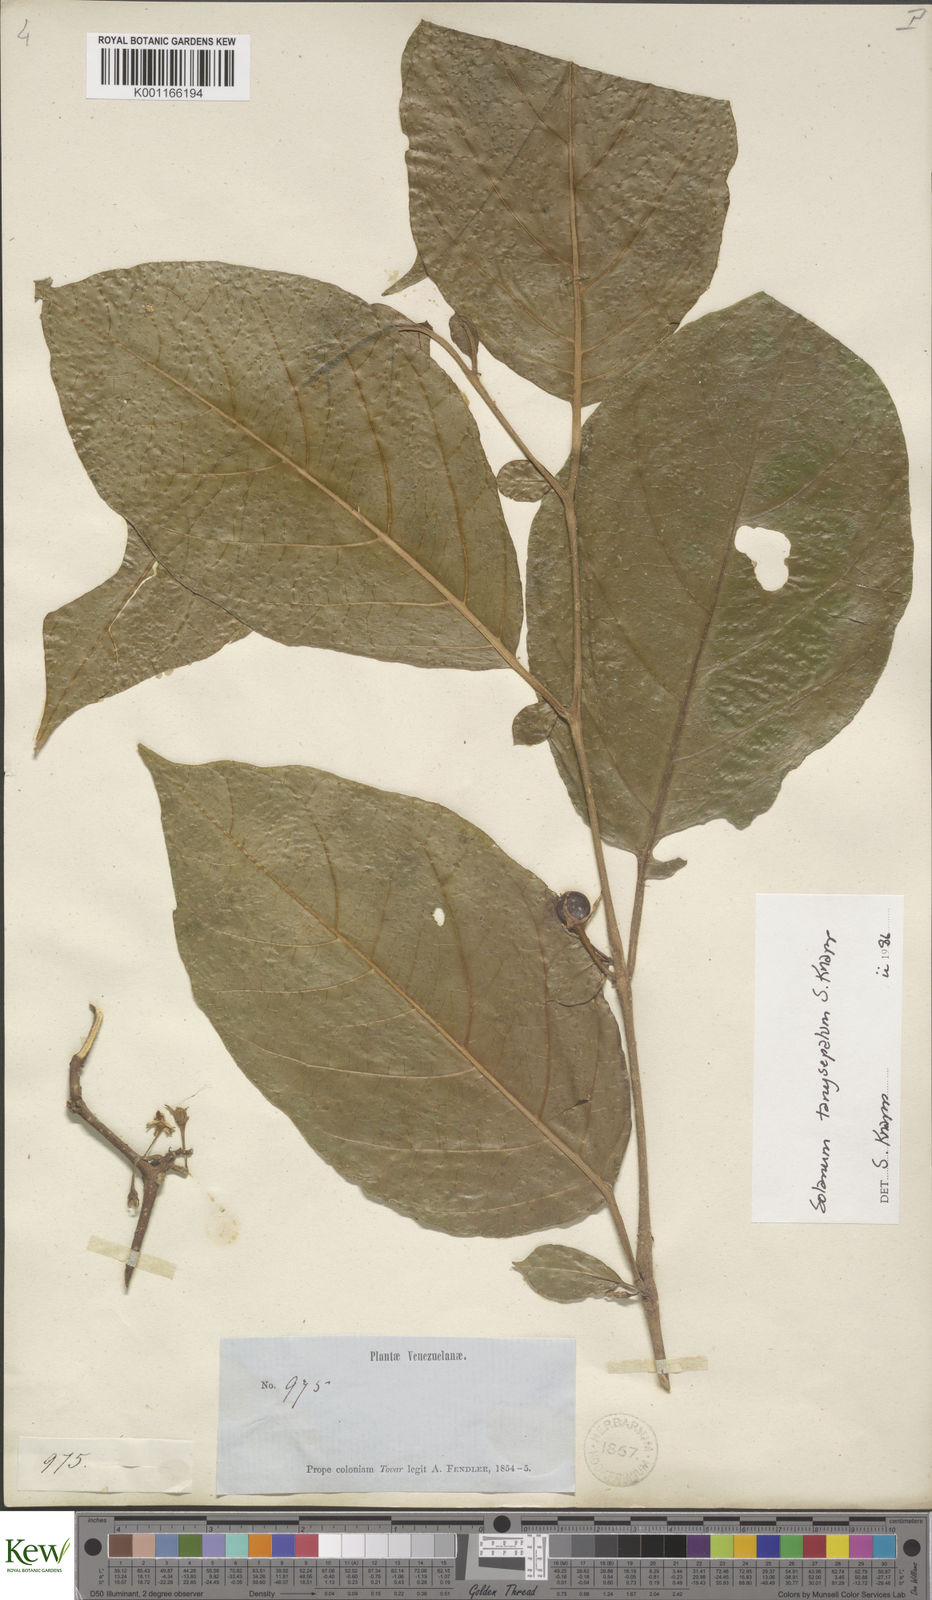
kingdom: Plantae
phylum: Tracheophyta
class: Magnoliopsida
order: Solanales
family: Solanaceae
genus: Solanum
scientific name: Solanum tanysepalum
